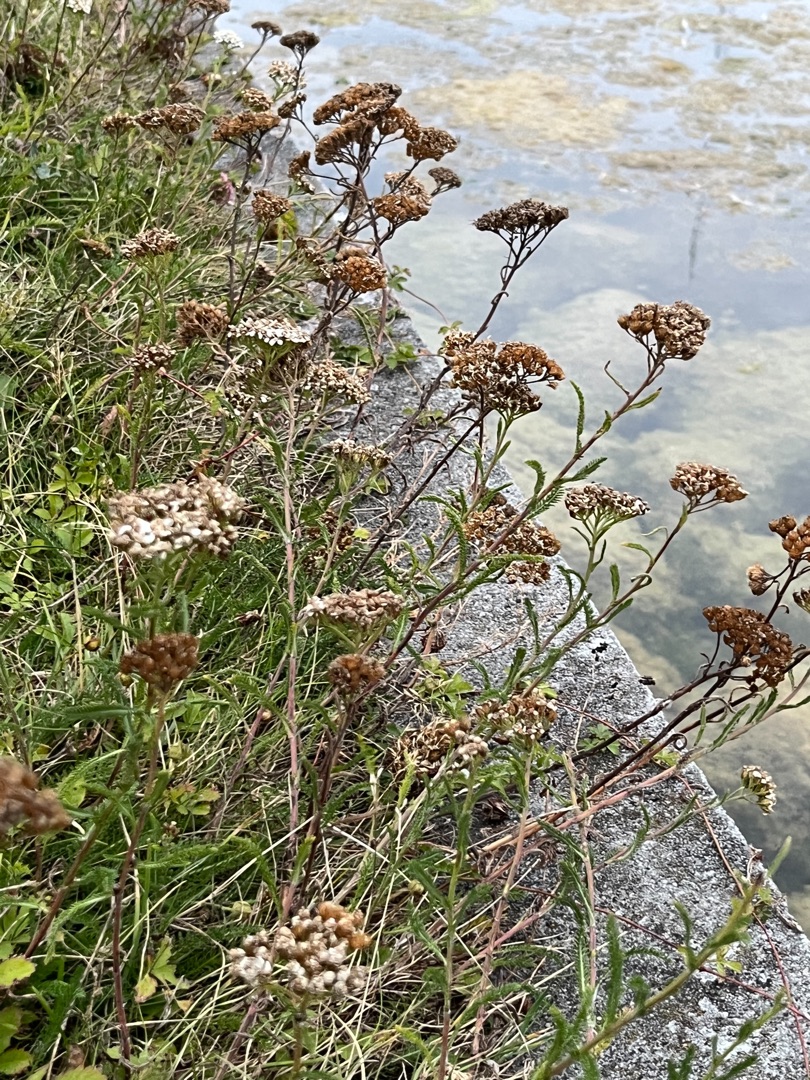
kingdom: Plantae
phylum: Tracheophyta
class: Magnoliopsida
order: Asterales
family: Asteraceae
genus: Achillea
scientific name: Achillea millefolium
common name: Almindelig røllike
